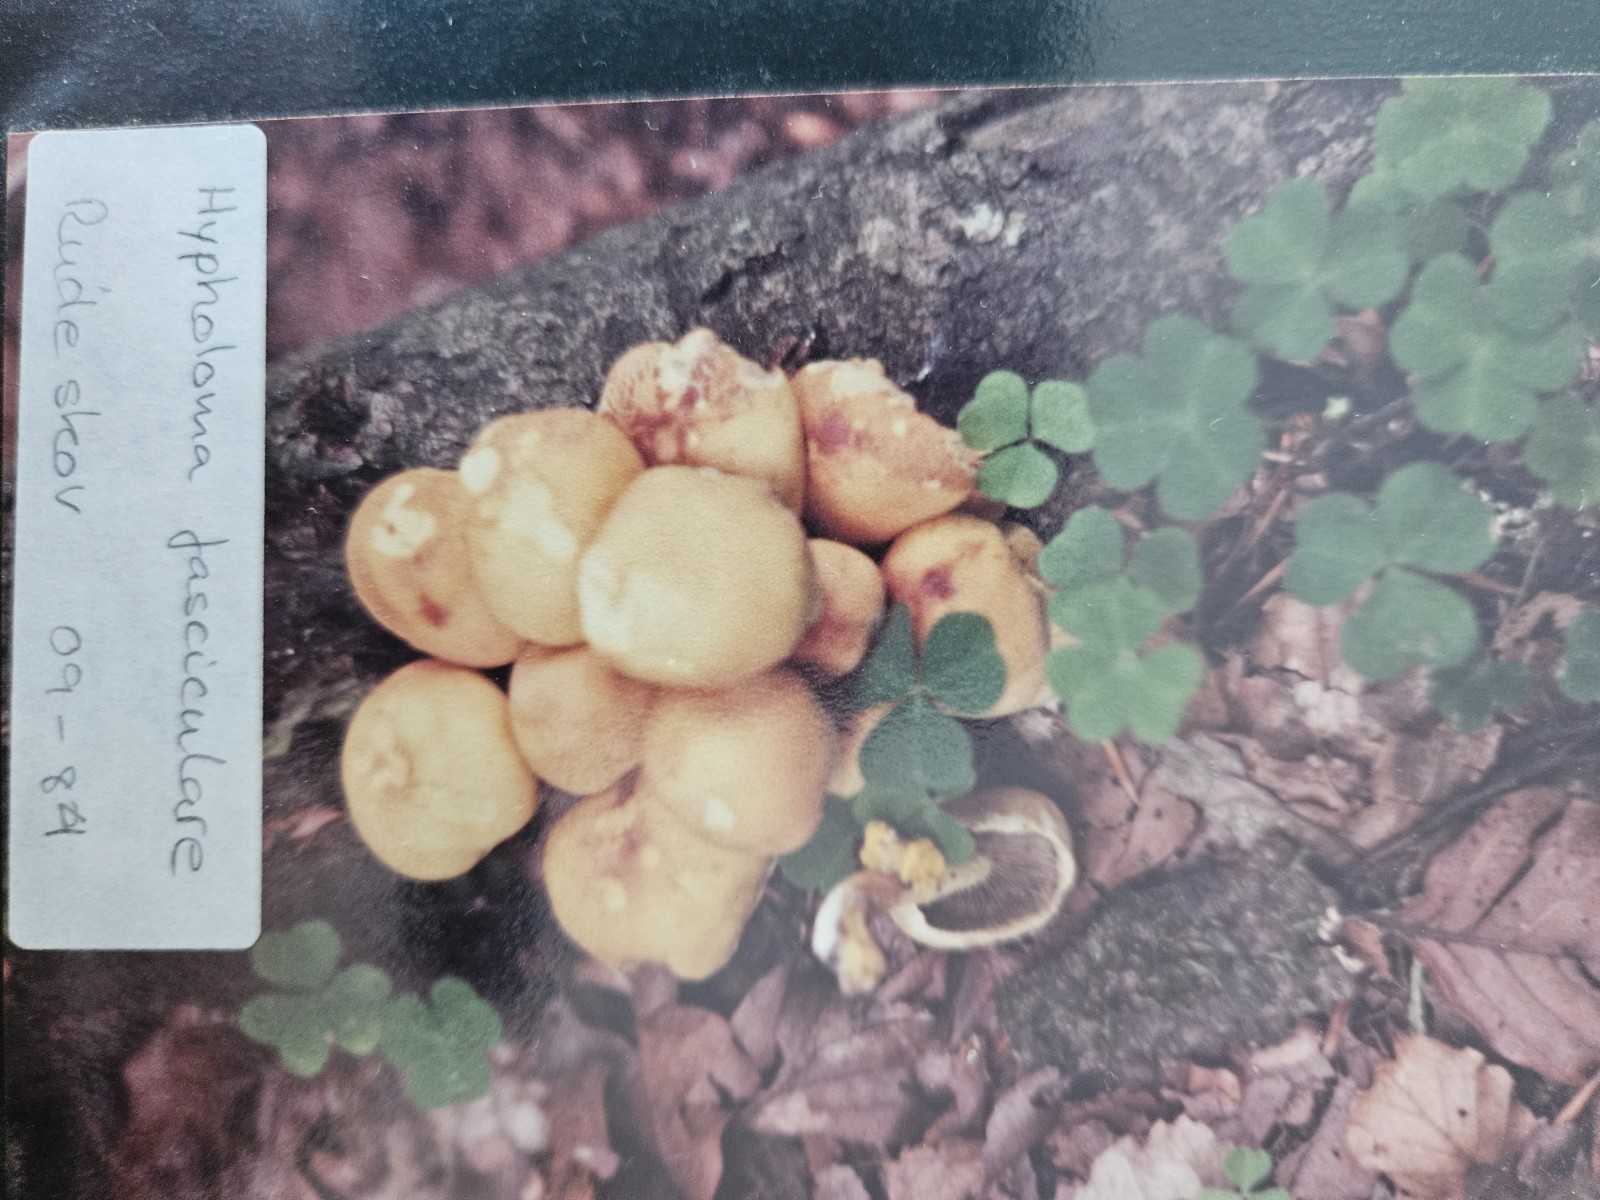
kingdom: Fungi
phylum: Basidiomycota
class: Agaricomycetes
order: Agaricales
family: Strophariaceae
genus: Hypholoma
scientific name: Hypholoma fasciculare
